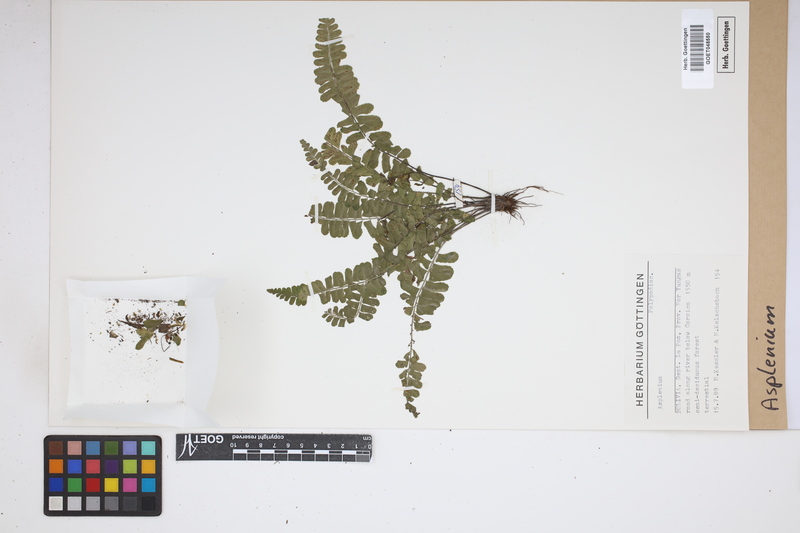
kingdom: Plantae
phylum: Tracheophyta
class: Polypodiopsida
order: Polypodiales
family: Aspleniaceae
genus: Asplenium
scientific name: Asplenium
